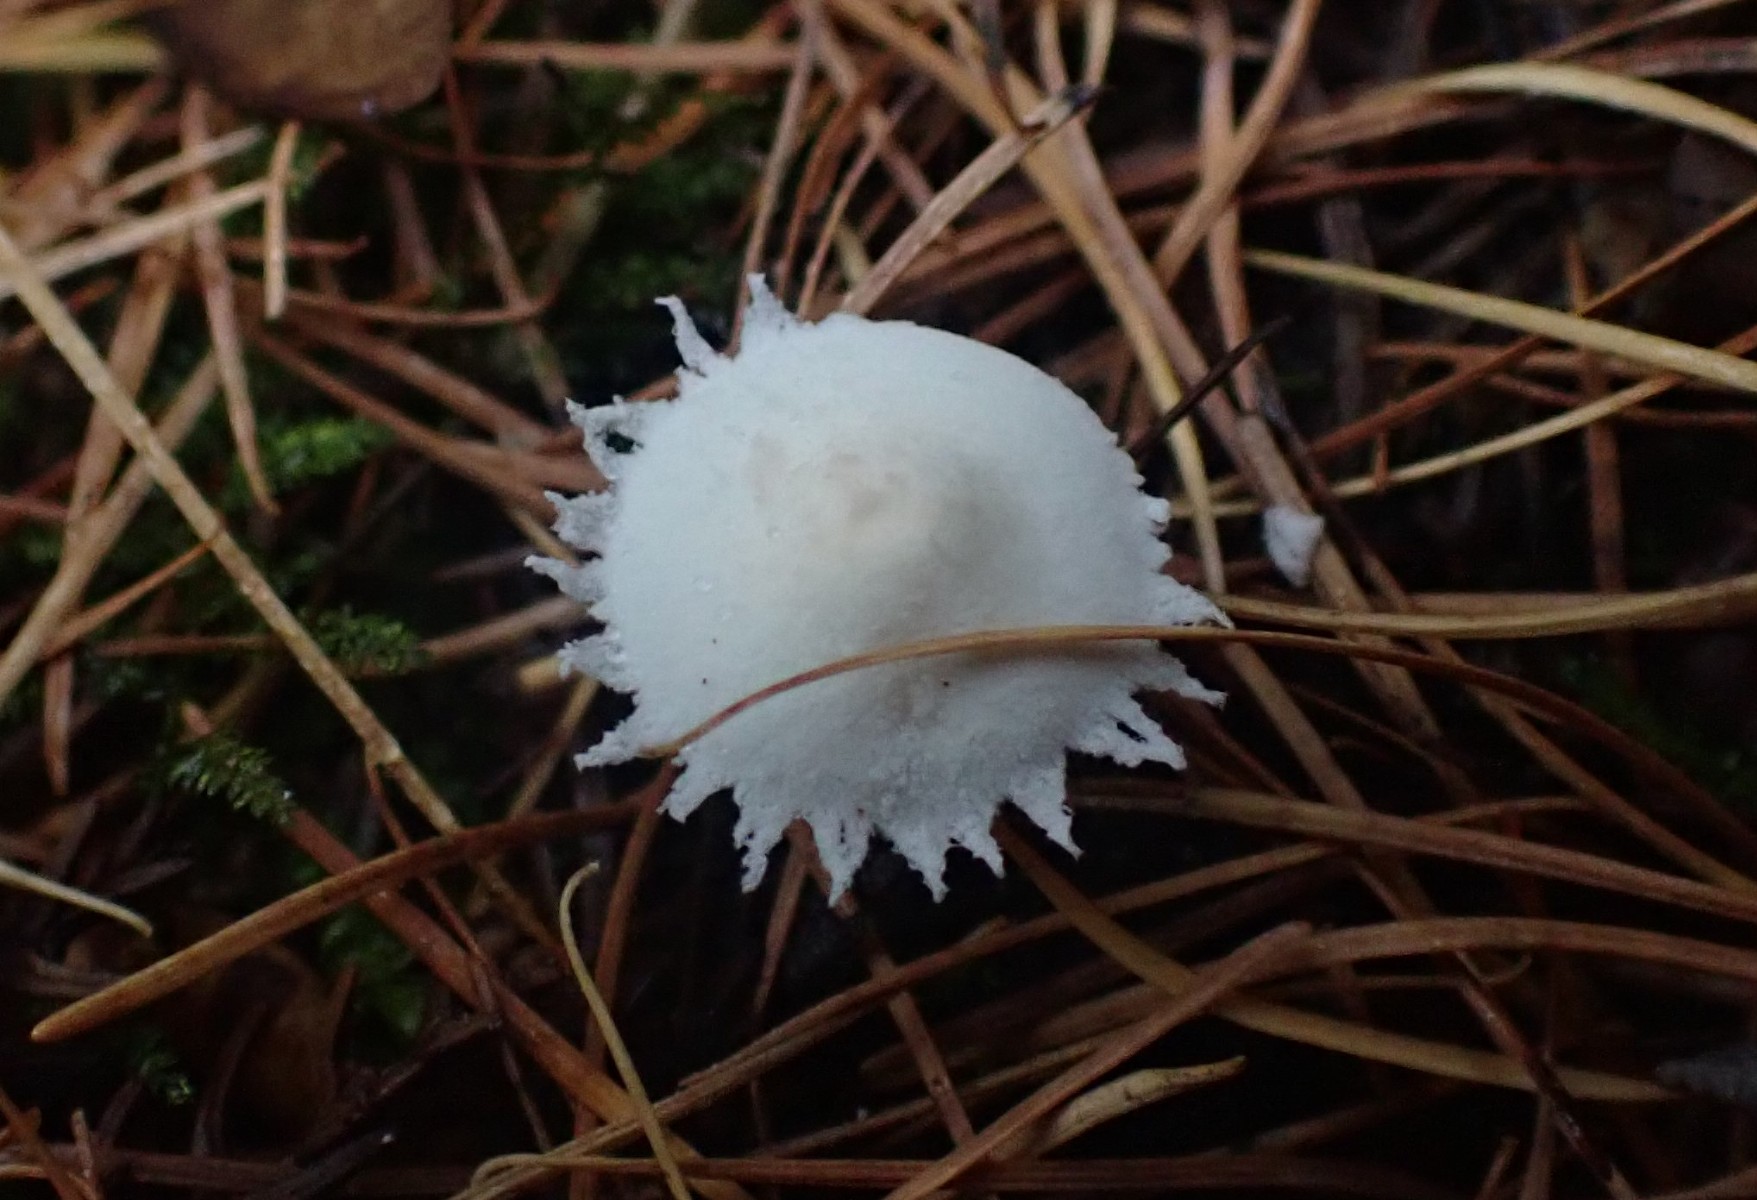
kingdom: Fungi
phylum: Basidiomycota
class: Agaricomycetes
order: Agaricales
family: Agaricaceae
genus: Cystolepiota
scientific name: Cystolepiota seminuda
